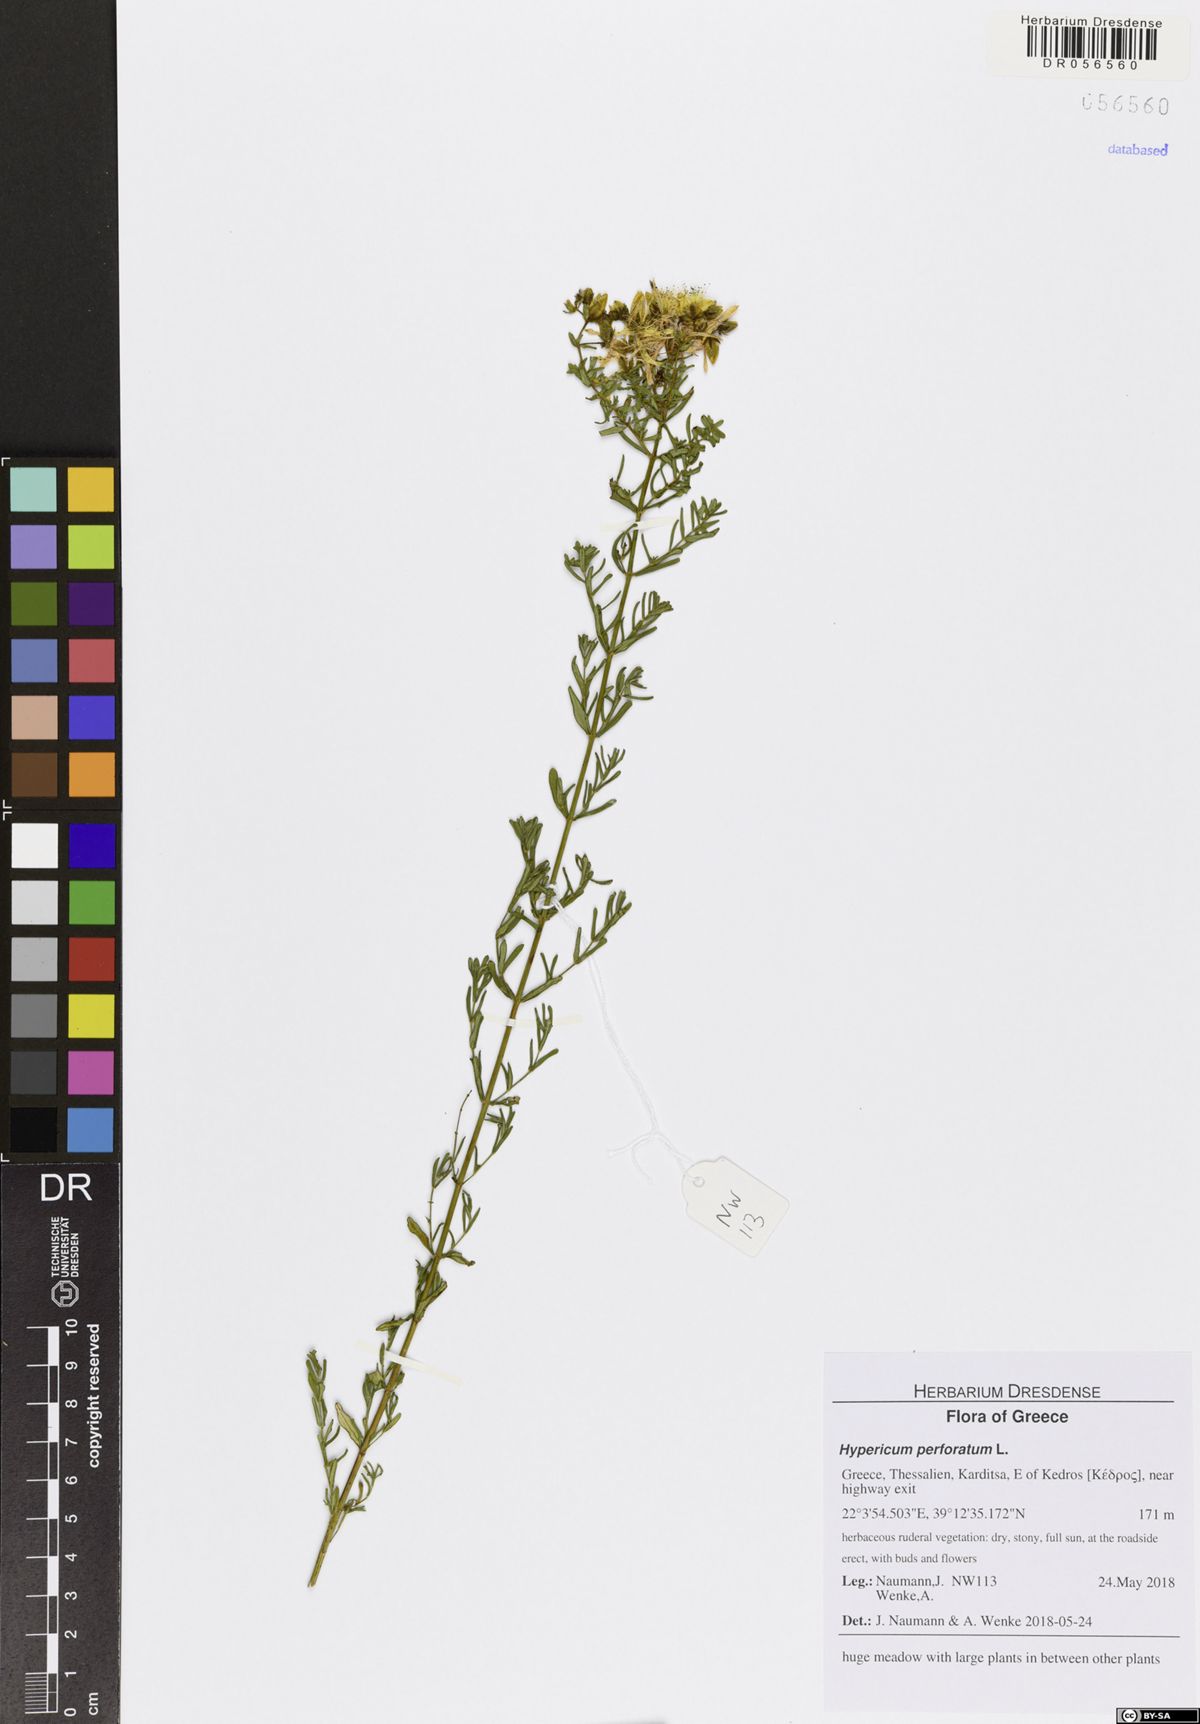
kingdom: Plantae
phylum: Tracheophyta
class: Magnoliopsida
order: Malpighiales
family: Hypericaceae
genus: Hypericum
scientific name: Hypericum perforatum
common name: Common st. johnswort
